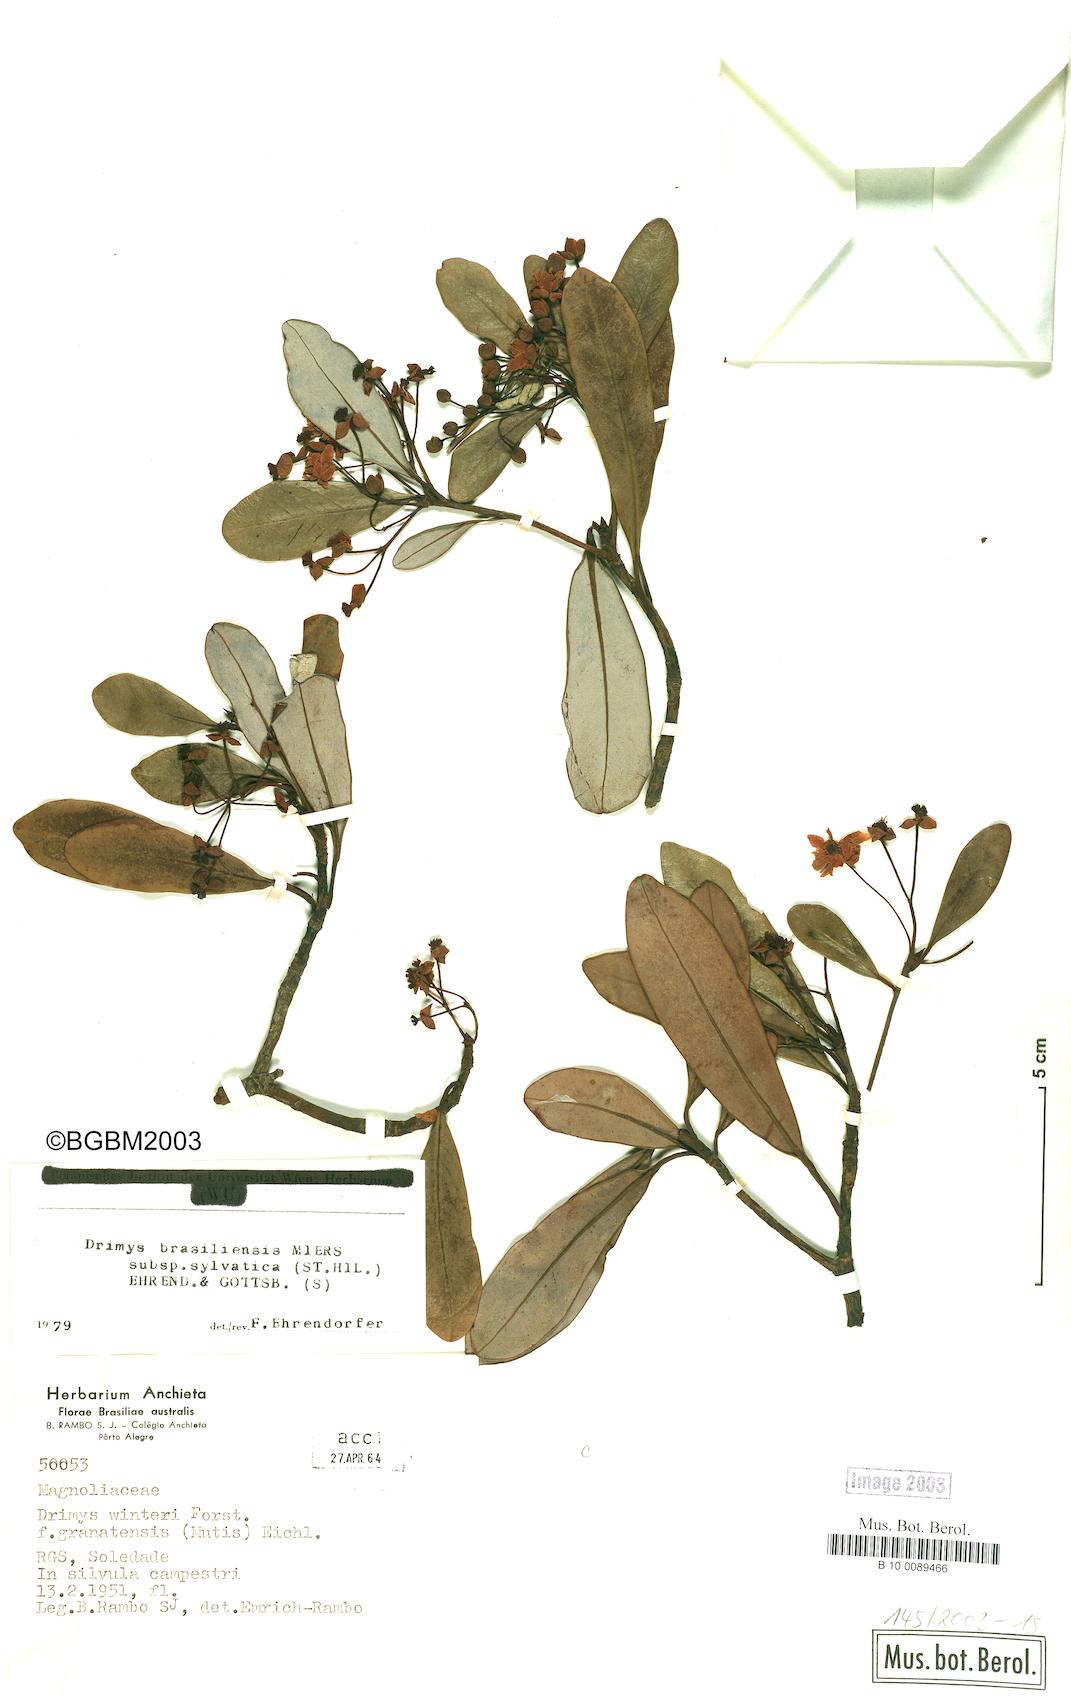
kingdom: Plantae
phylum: Tracheophyta
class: Magnoliopsida
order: Canellales
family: Winteraceae
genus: Drimys
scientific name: Drimys brasiliensis
